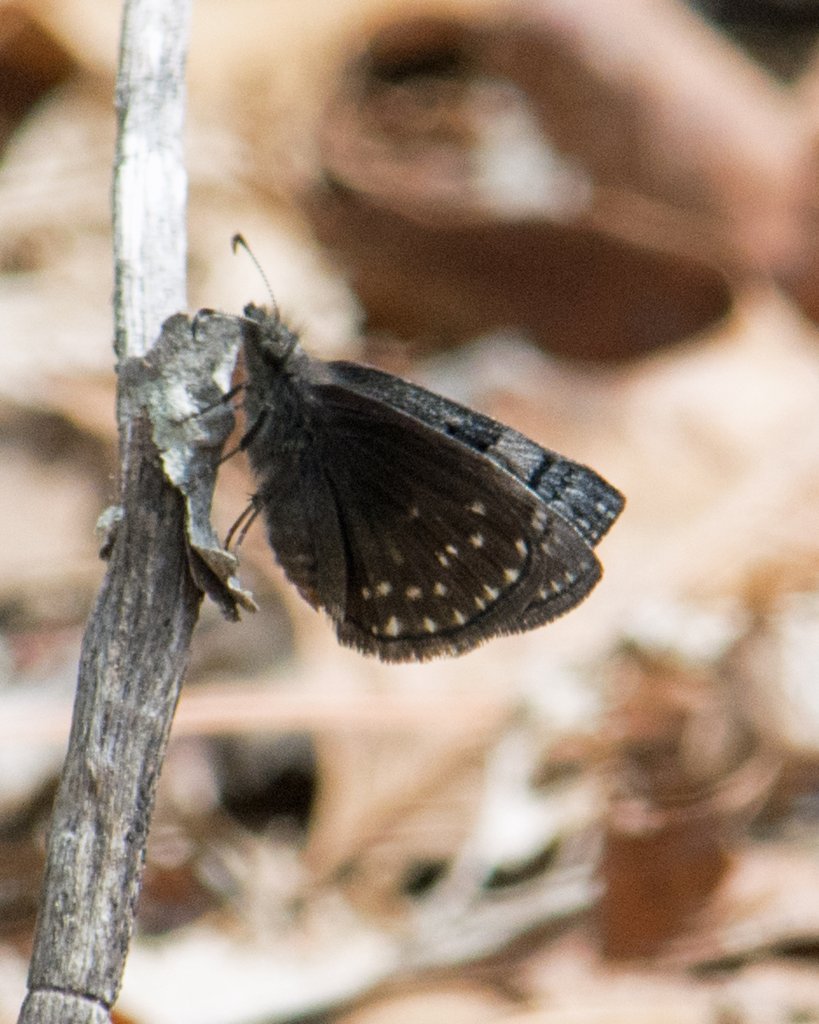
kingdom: Animalia
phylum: Arthropoda
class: Insecta
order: Lepidoptera
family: Hesperiidae
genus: Erynnis
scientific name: Erynnis brizo
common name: Sleepy Duskywing
